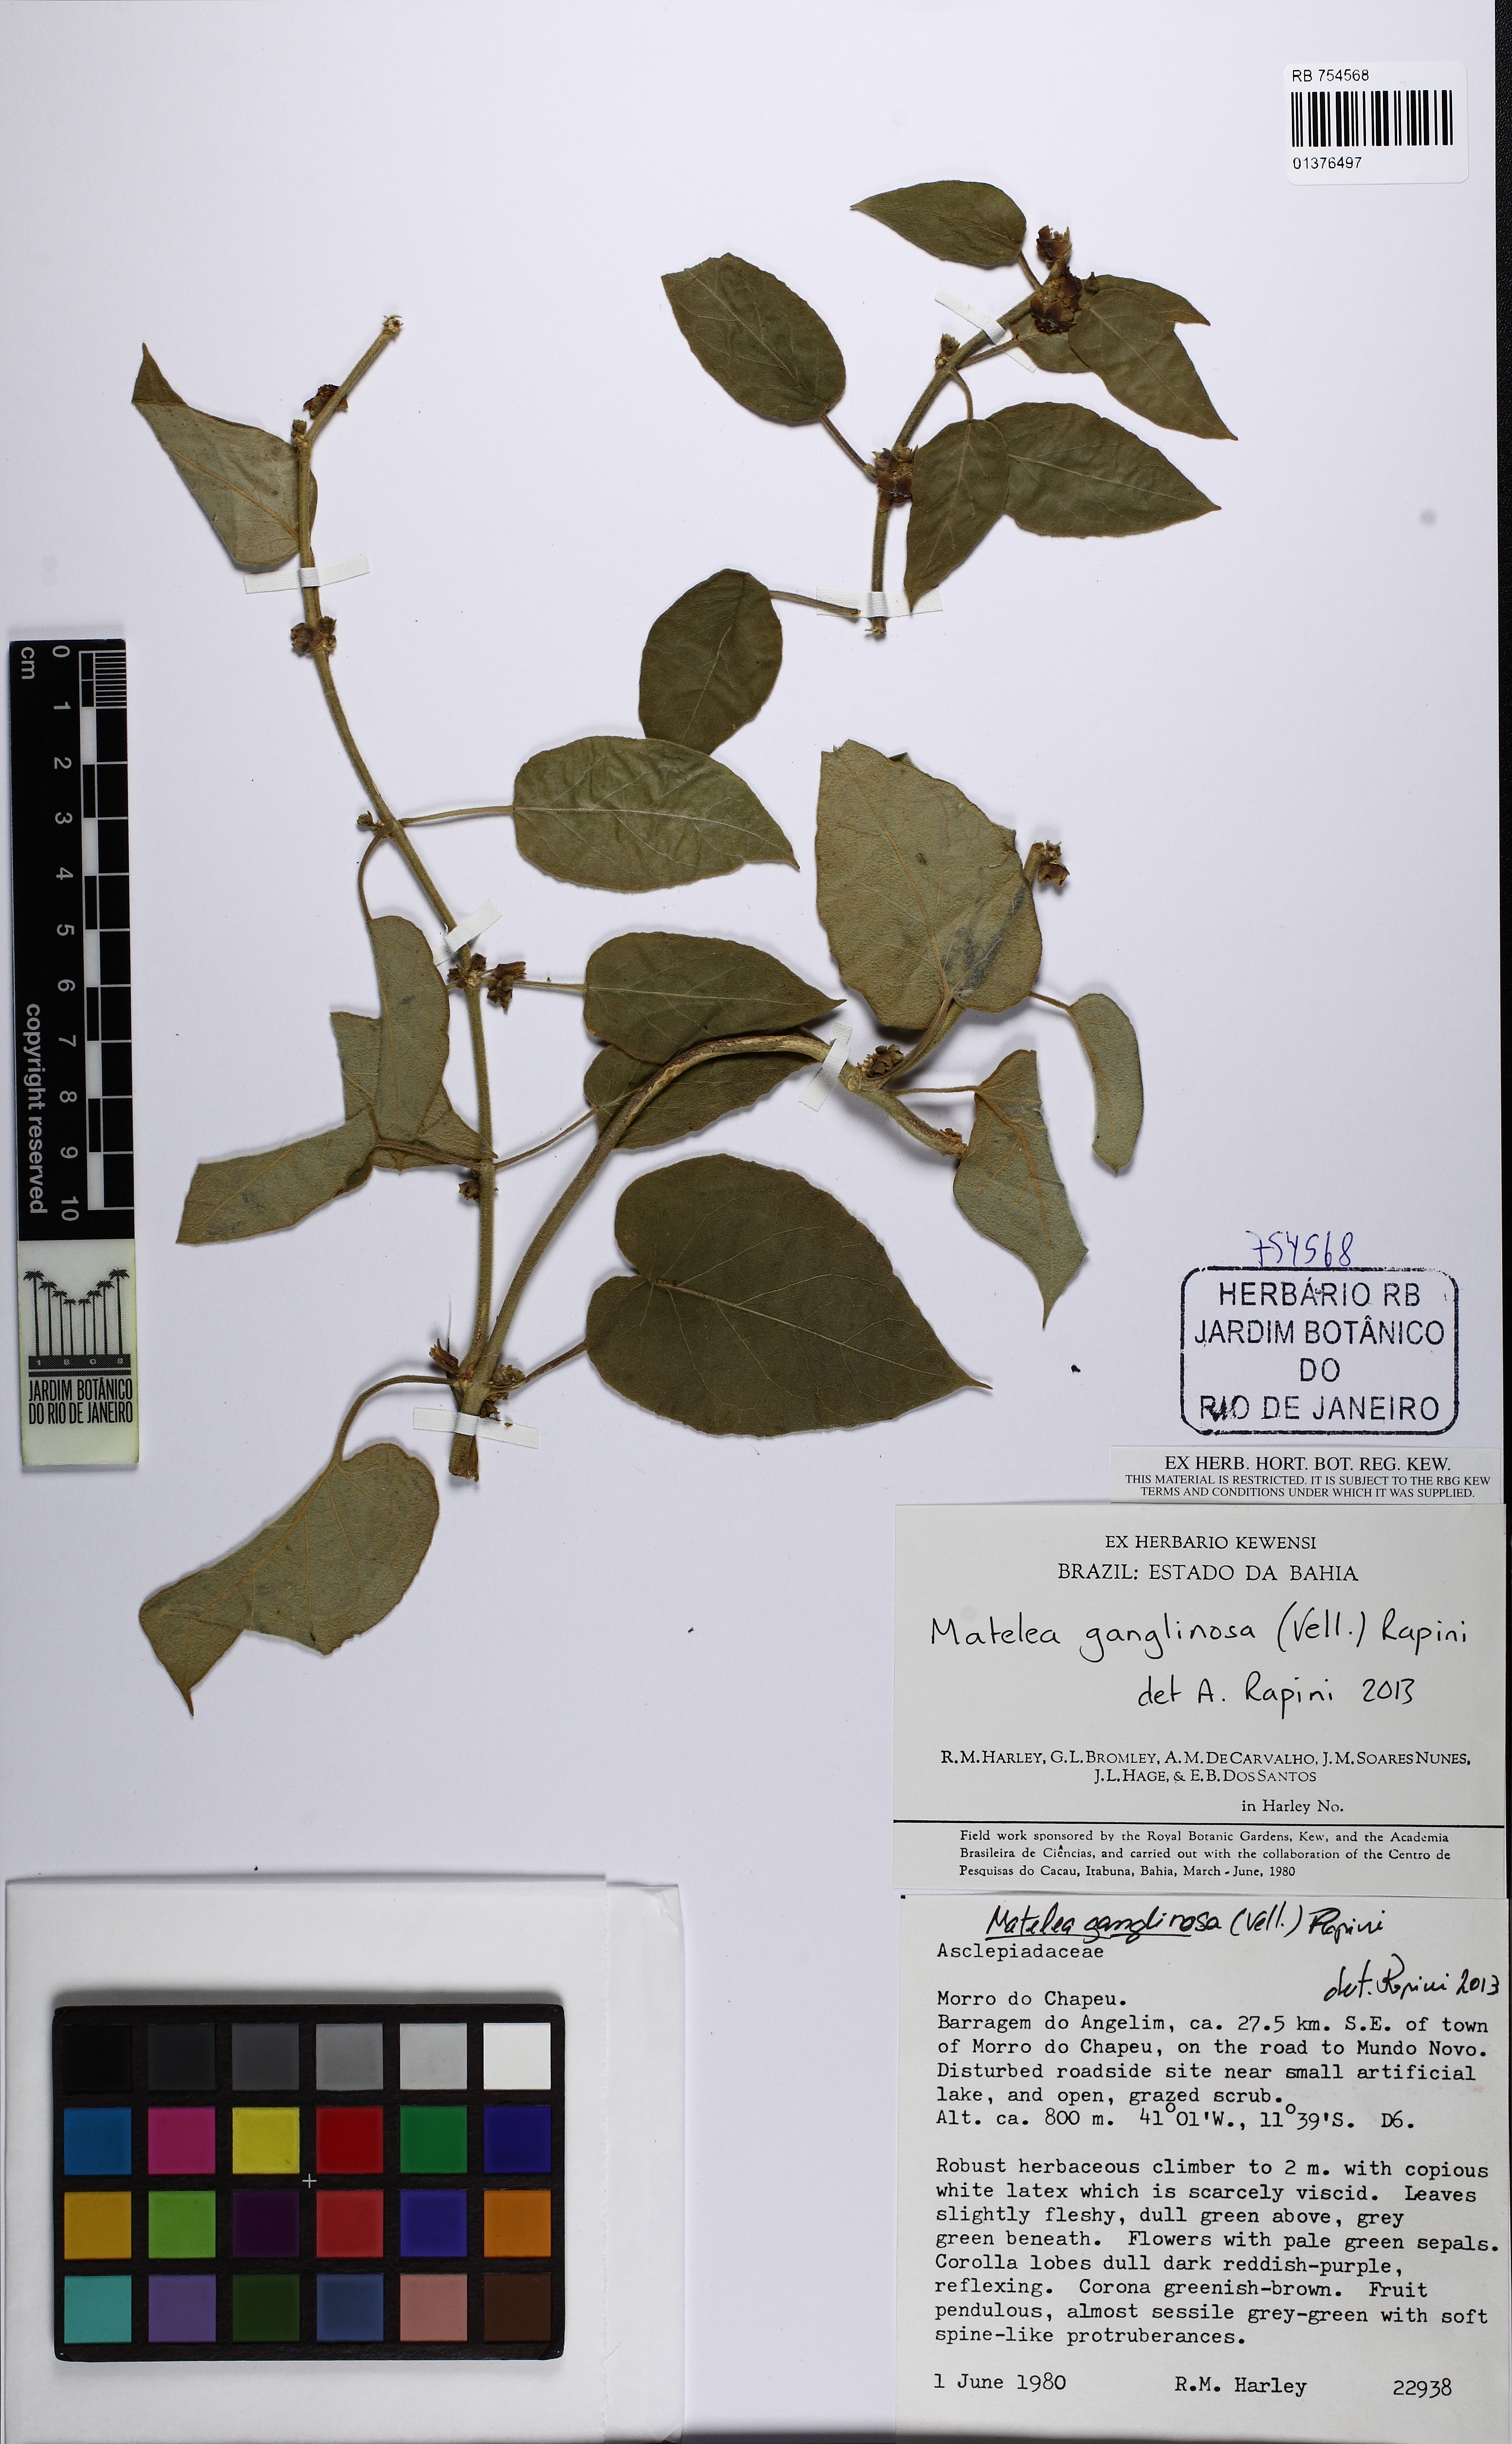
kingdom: Plantae
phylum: Tracheophyta
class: Magnoliopsida
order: Gentianales
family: Apocynaceae
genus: Ibatia
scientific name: Ibatia ganglinosa
